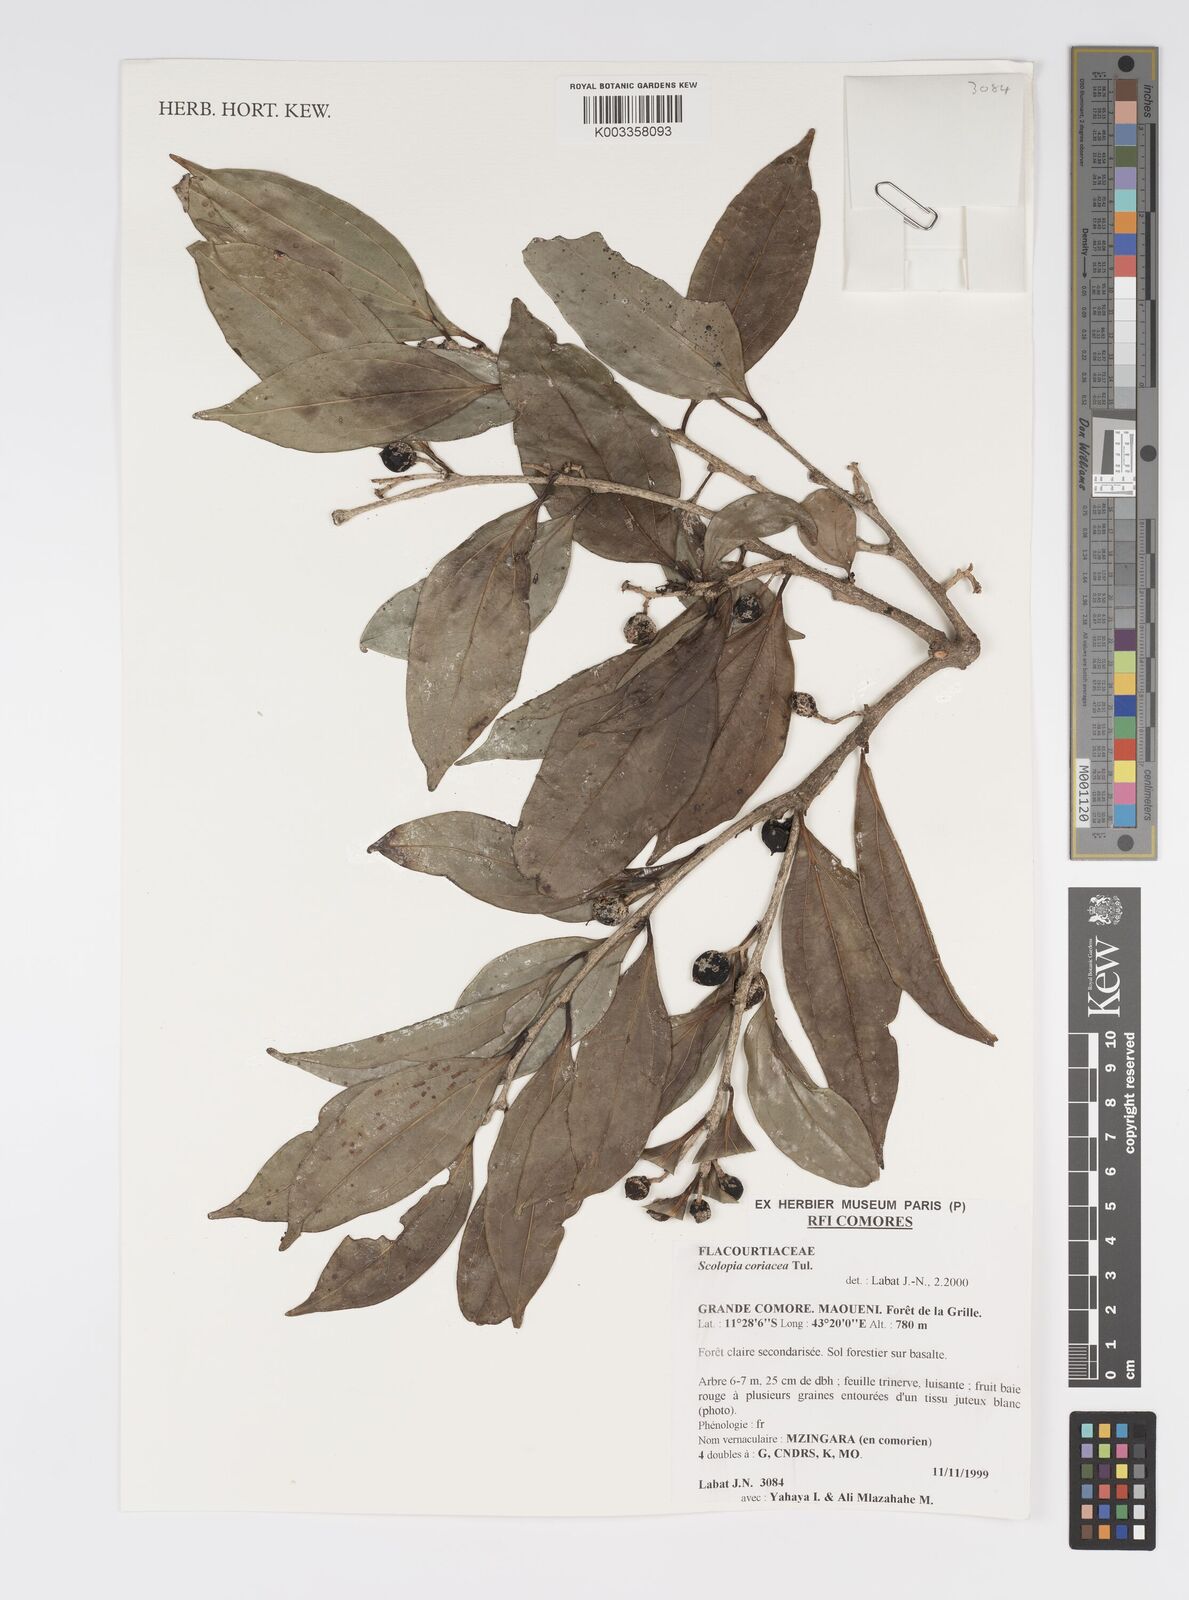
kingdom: Plantae
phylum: Tracheophyta
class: Magnoliopsida
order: Malpighiales
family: Salicaceae
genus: Scolopia
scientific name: Scolopia coriacea
